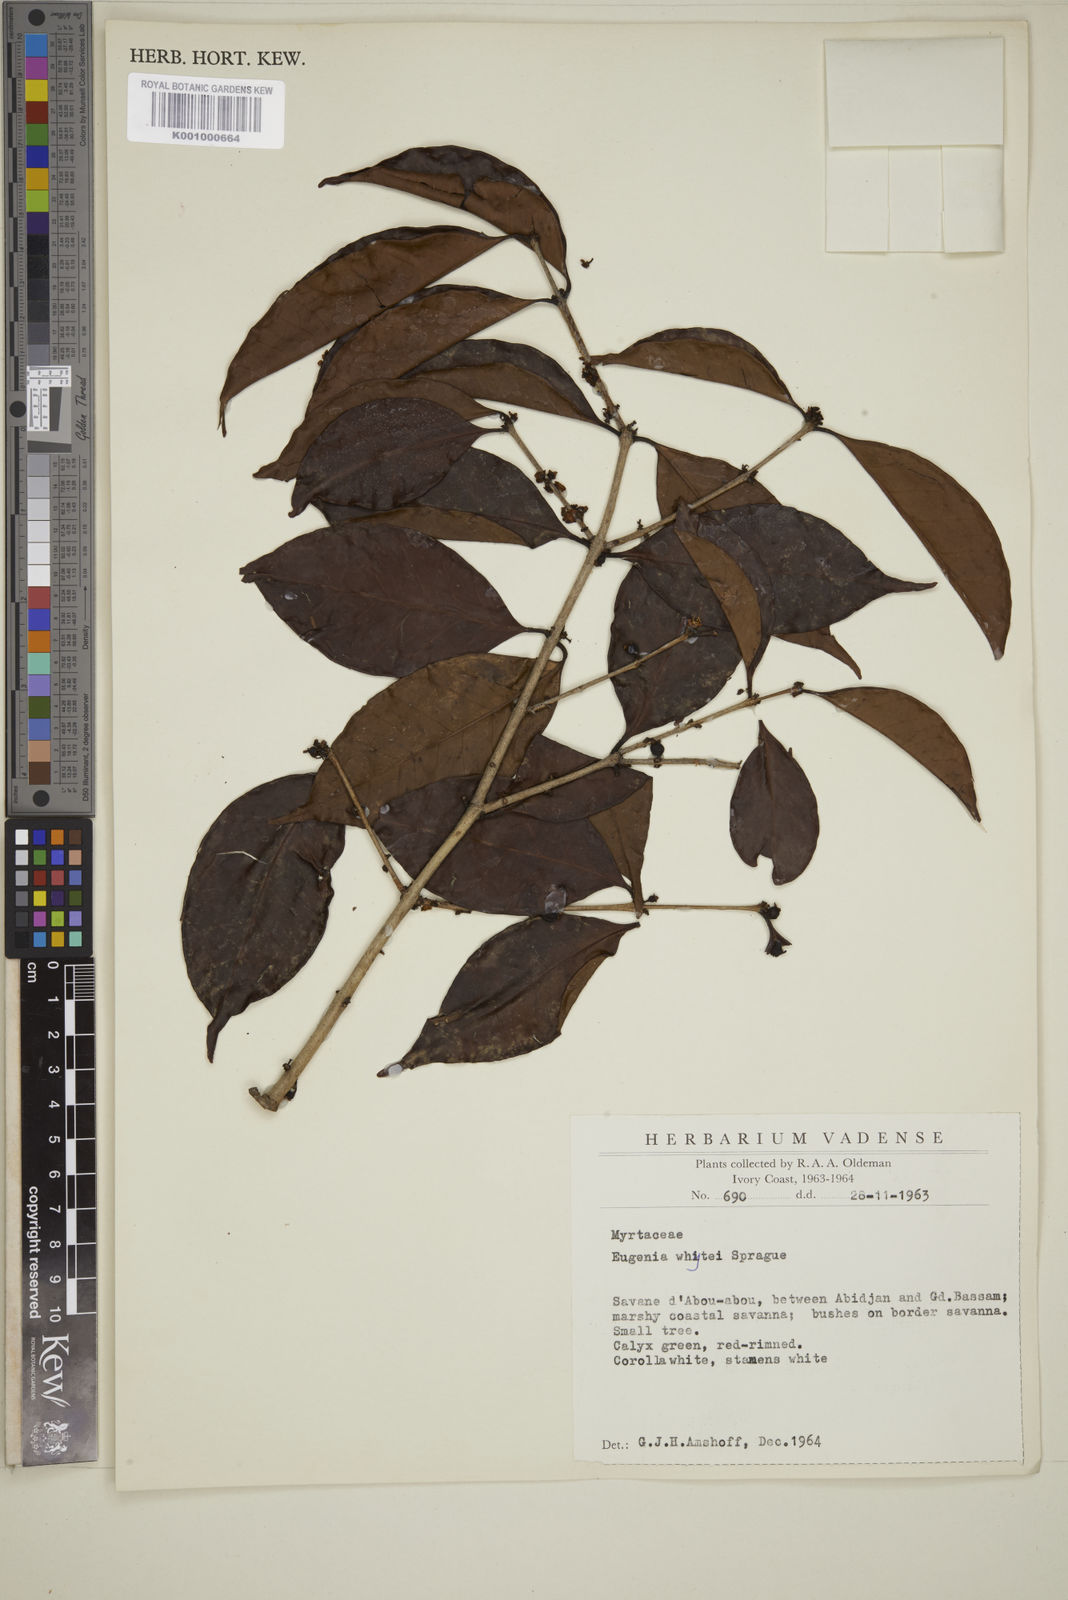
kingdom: Plantae
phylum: Tracheophyta
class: Magnoliopsida
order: Myrtales
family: Myrtaceae
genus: Eugenia
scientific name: Eugenia whytei
